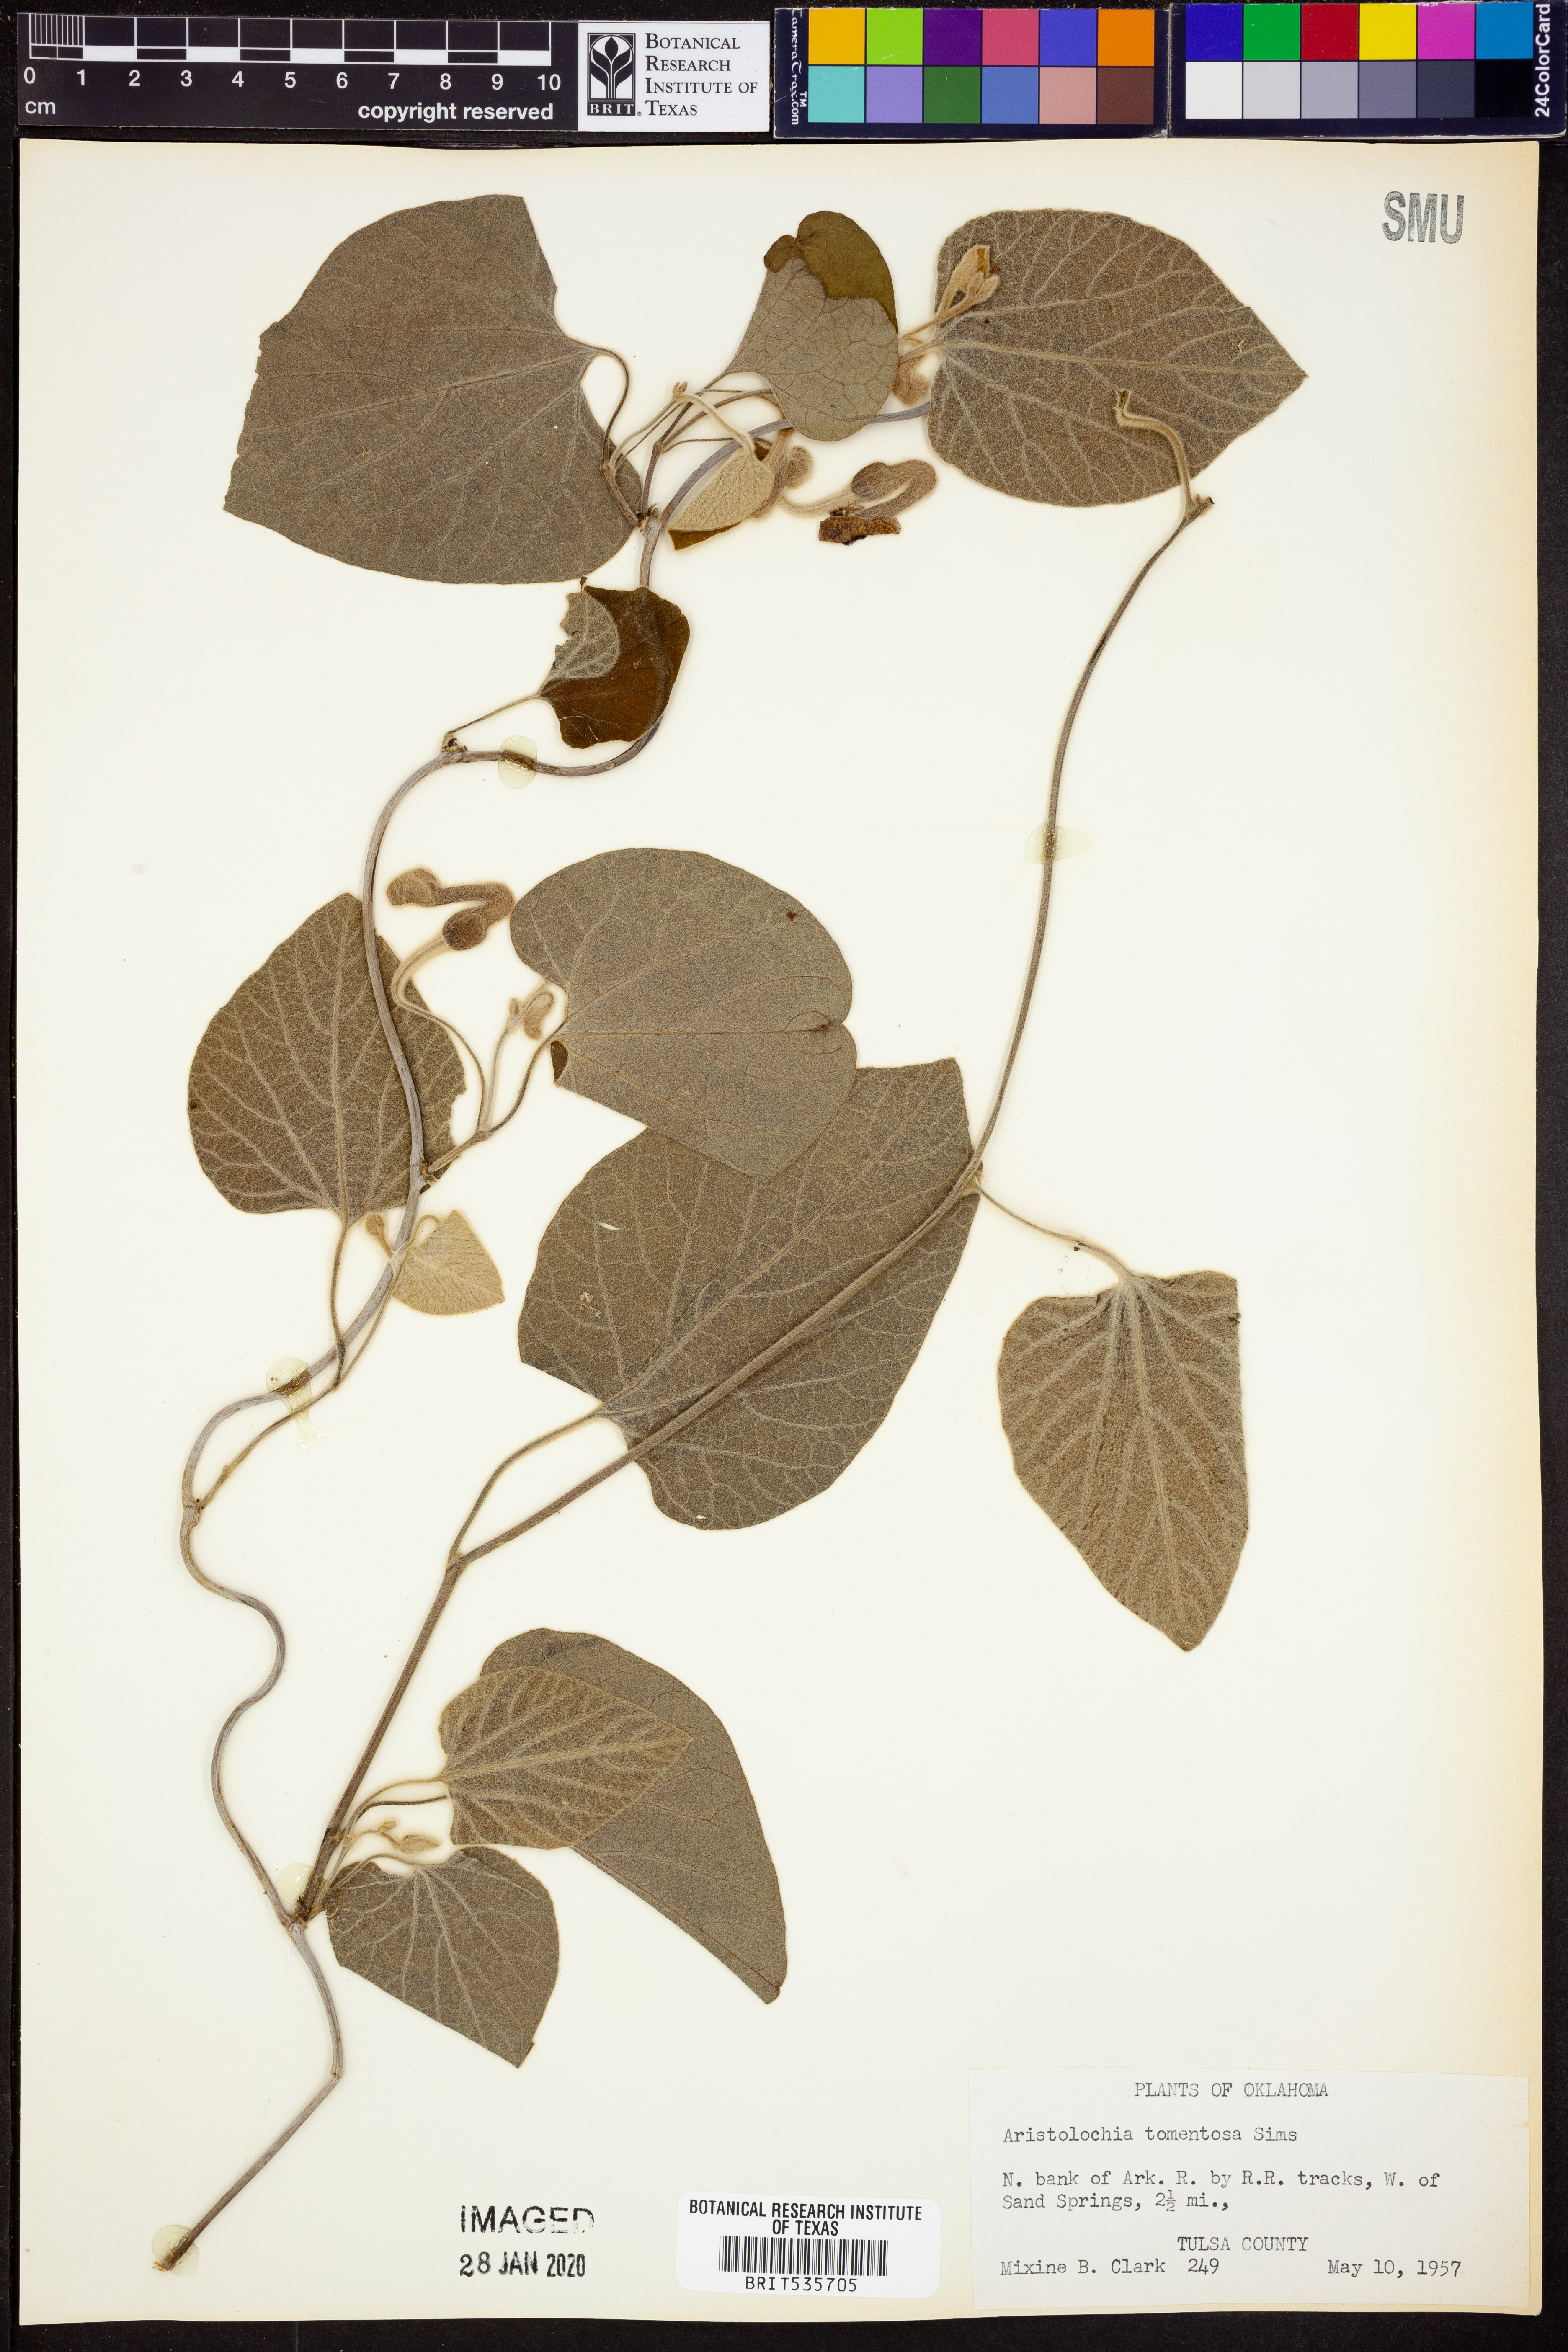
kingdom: Plantae
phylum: Tracheophyta
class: Magnoliopsida
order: Piperales
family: Aristolochiaceae
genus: Isotrema
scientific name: Isotrema tomentosum
